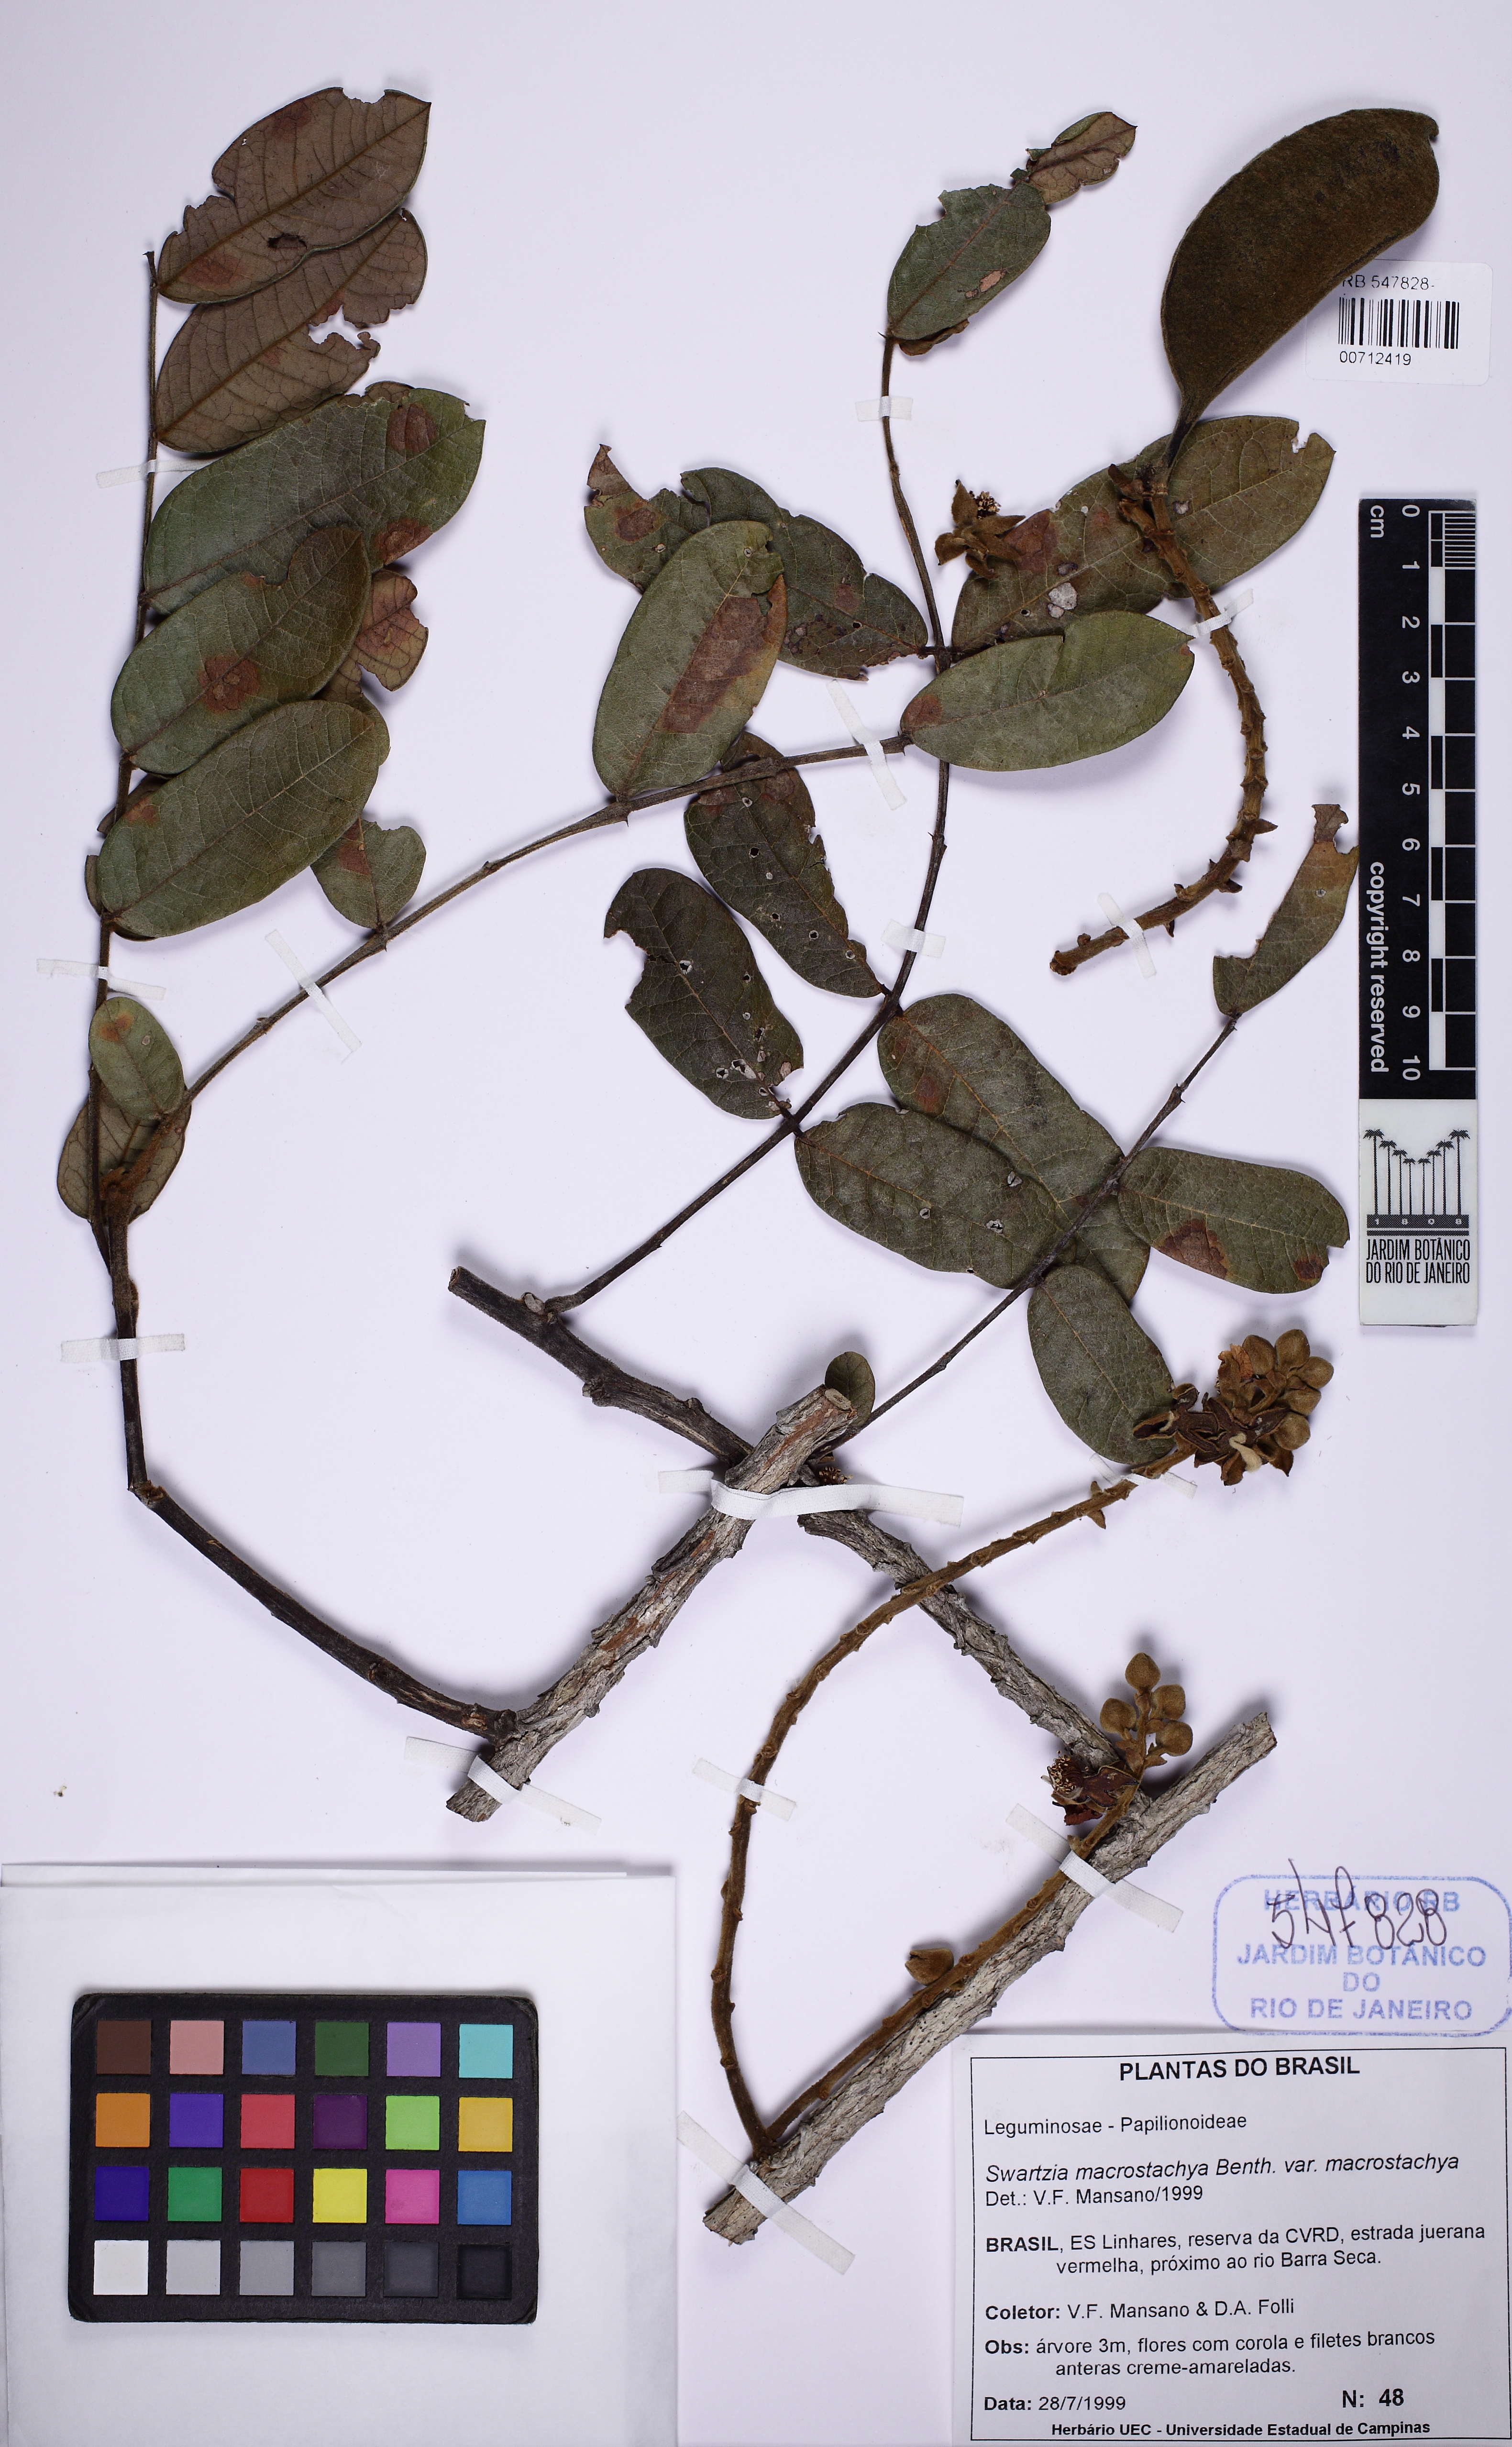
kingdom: Plantae
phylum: Tracheophyta
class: Magnoliopsida
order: Fabales
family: Fabaceae
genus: Swartzia
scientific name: Swartzia macrostachya
